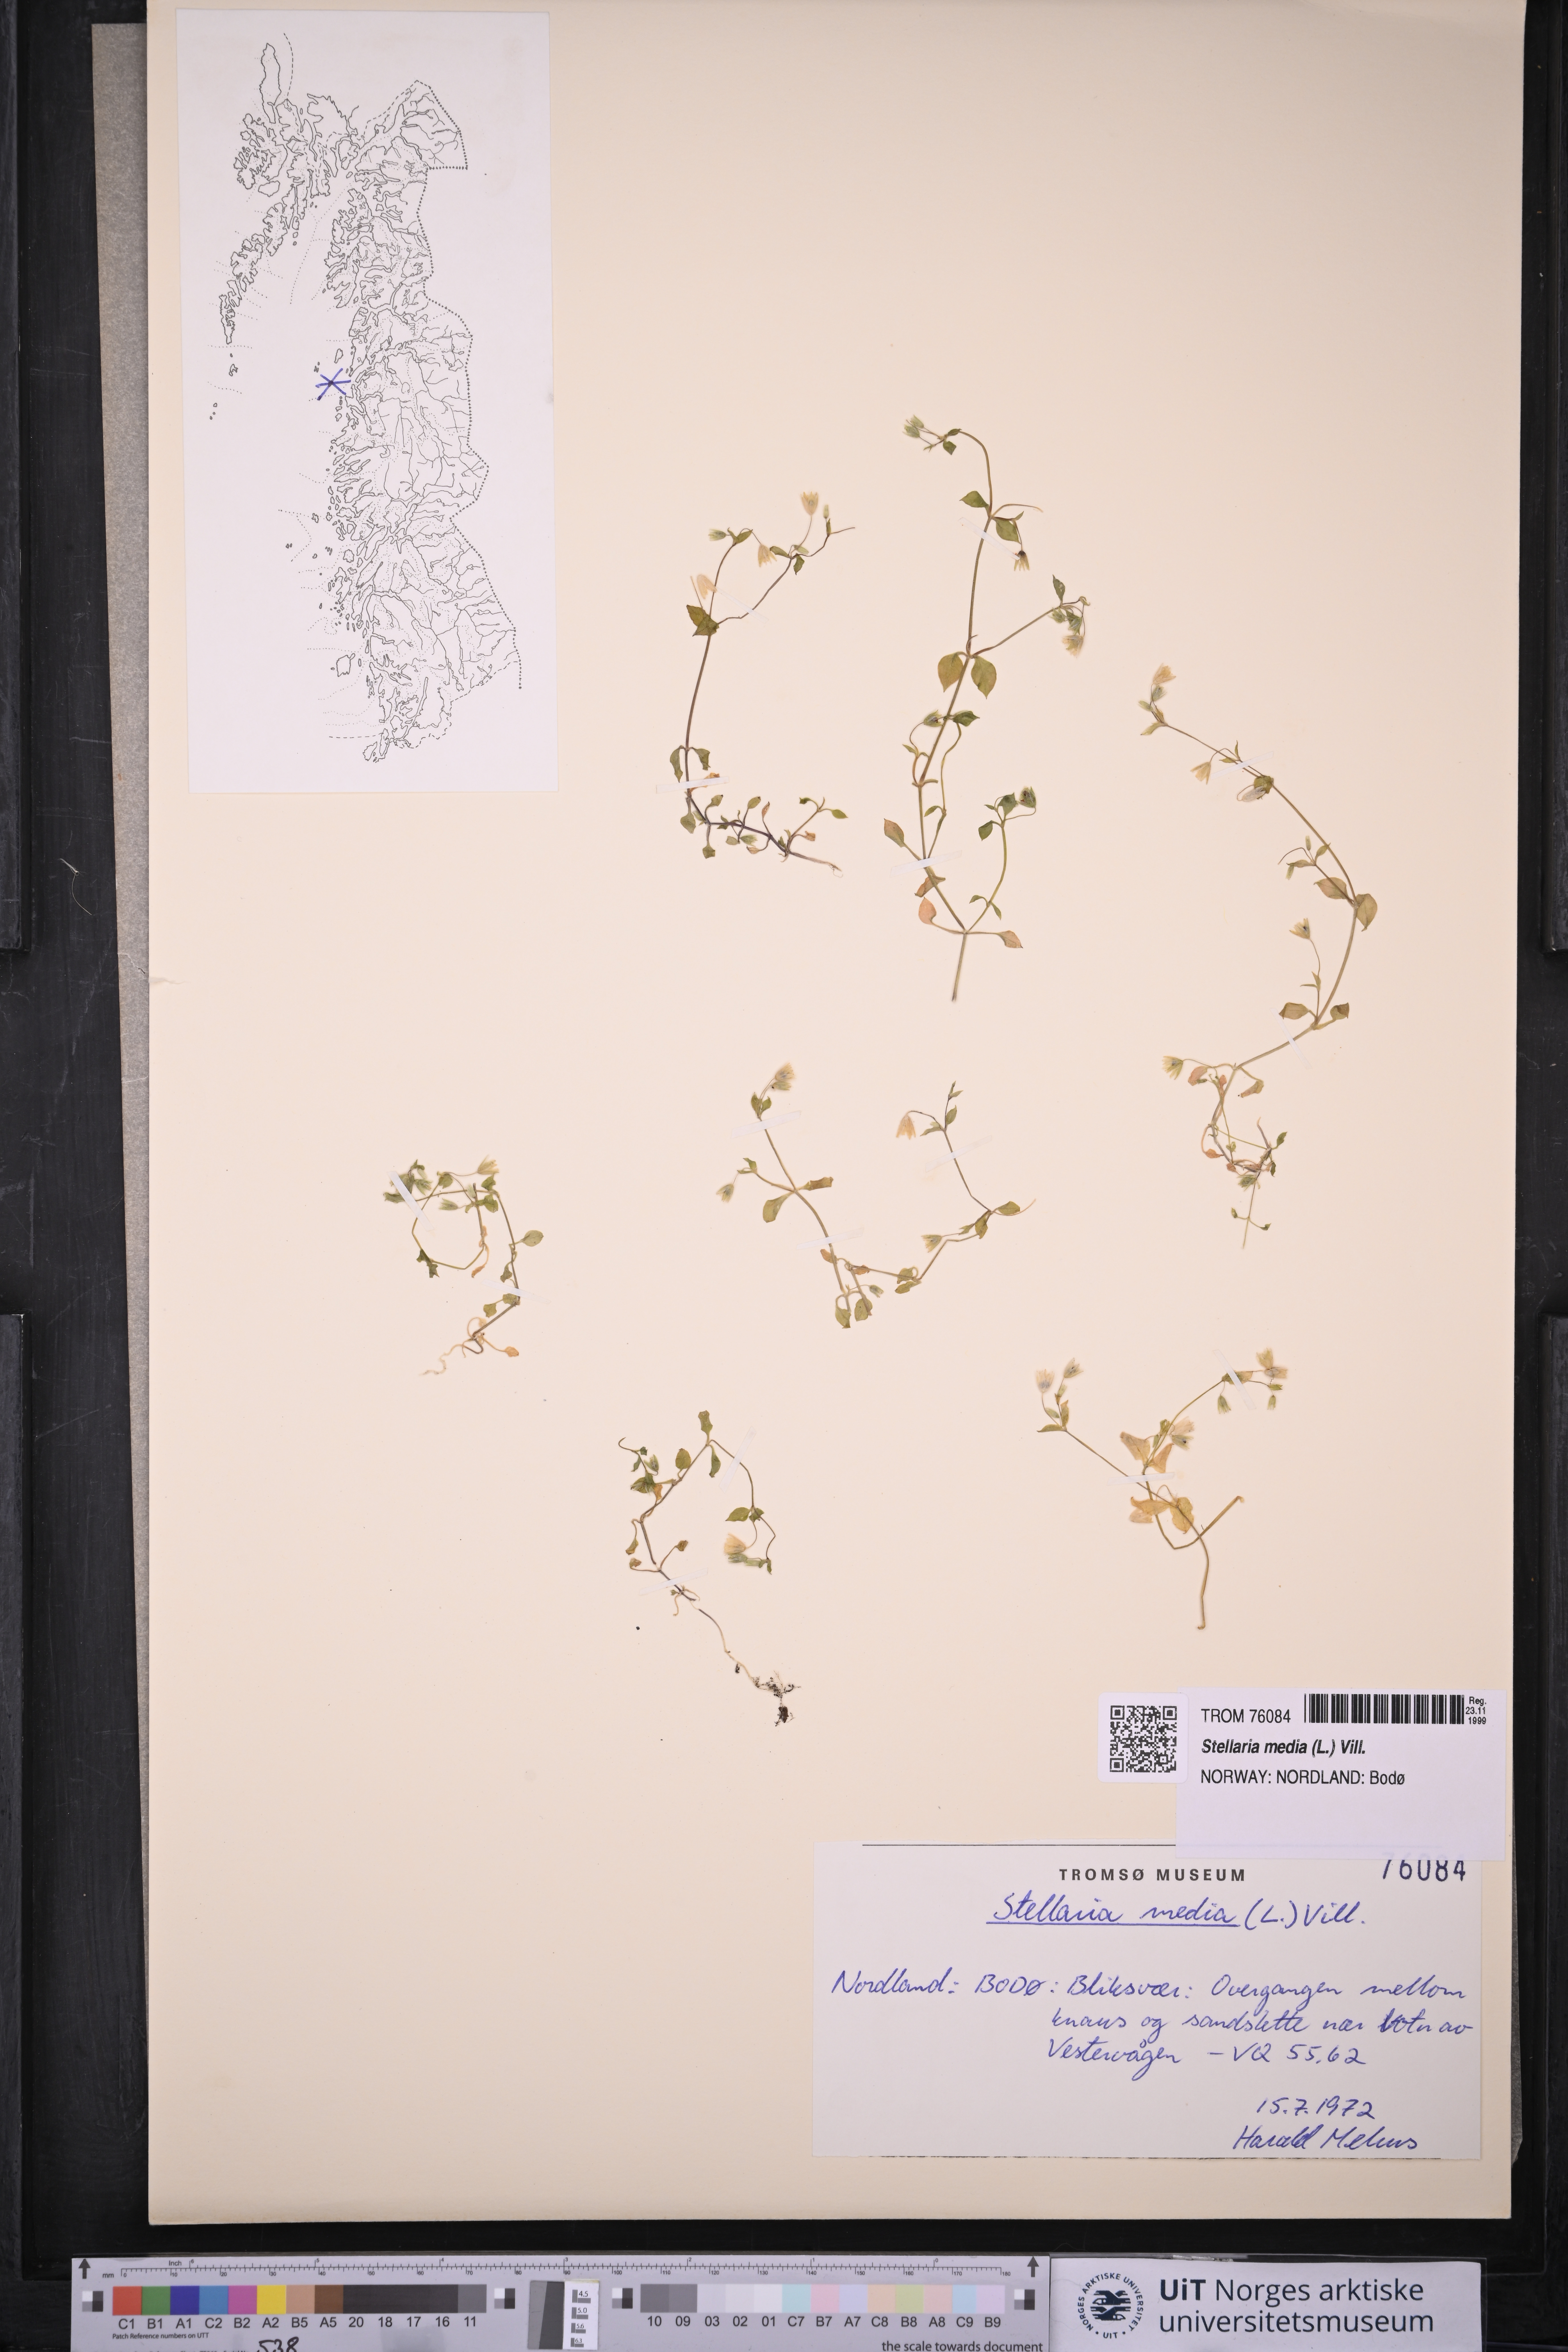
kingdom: Plantae
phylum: Tracheophyta
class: Magnoliopsida
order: Caryophyllales
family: Caryophyllaceae
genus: Stellaria
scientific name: Stellaria media
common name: Common chickweed
